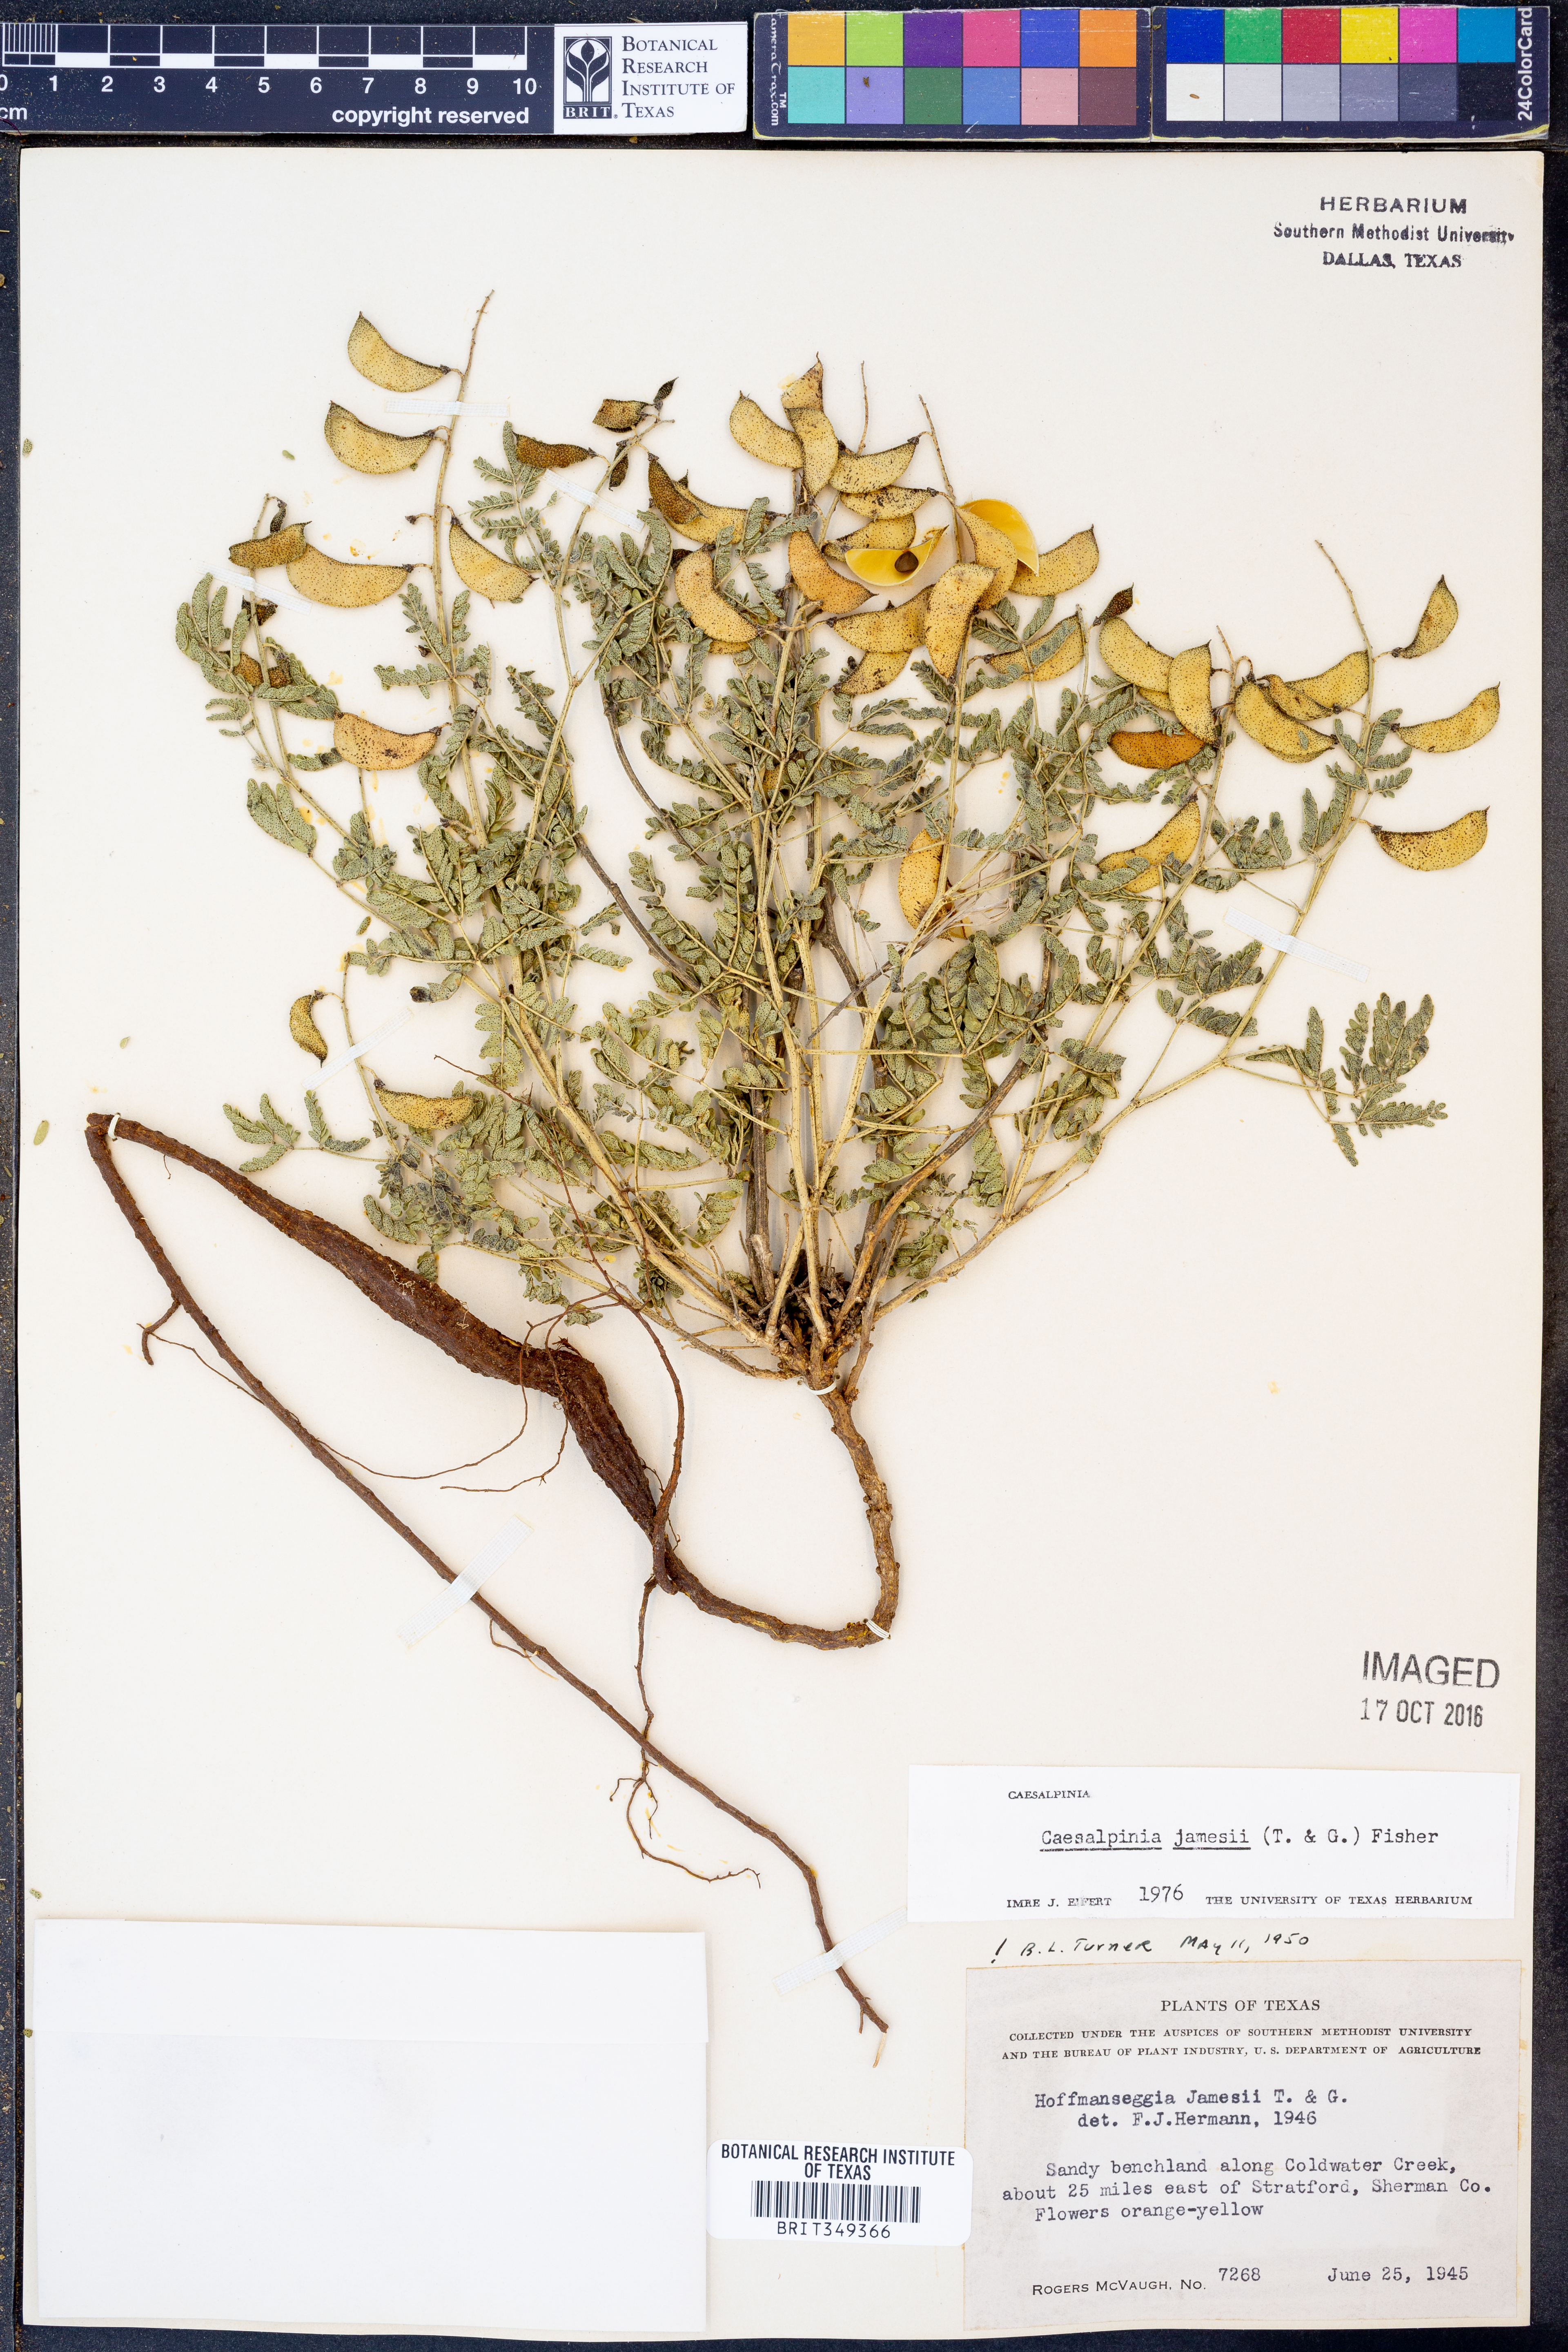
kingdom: Plantae
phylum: Tracheophyta
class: Magnoliopsida
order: Fabales
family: Fabaceae
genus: Pomaria
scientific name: Pomaria jamesii
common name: James' caesalpinia
